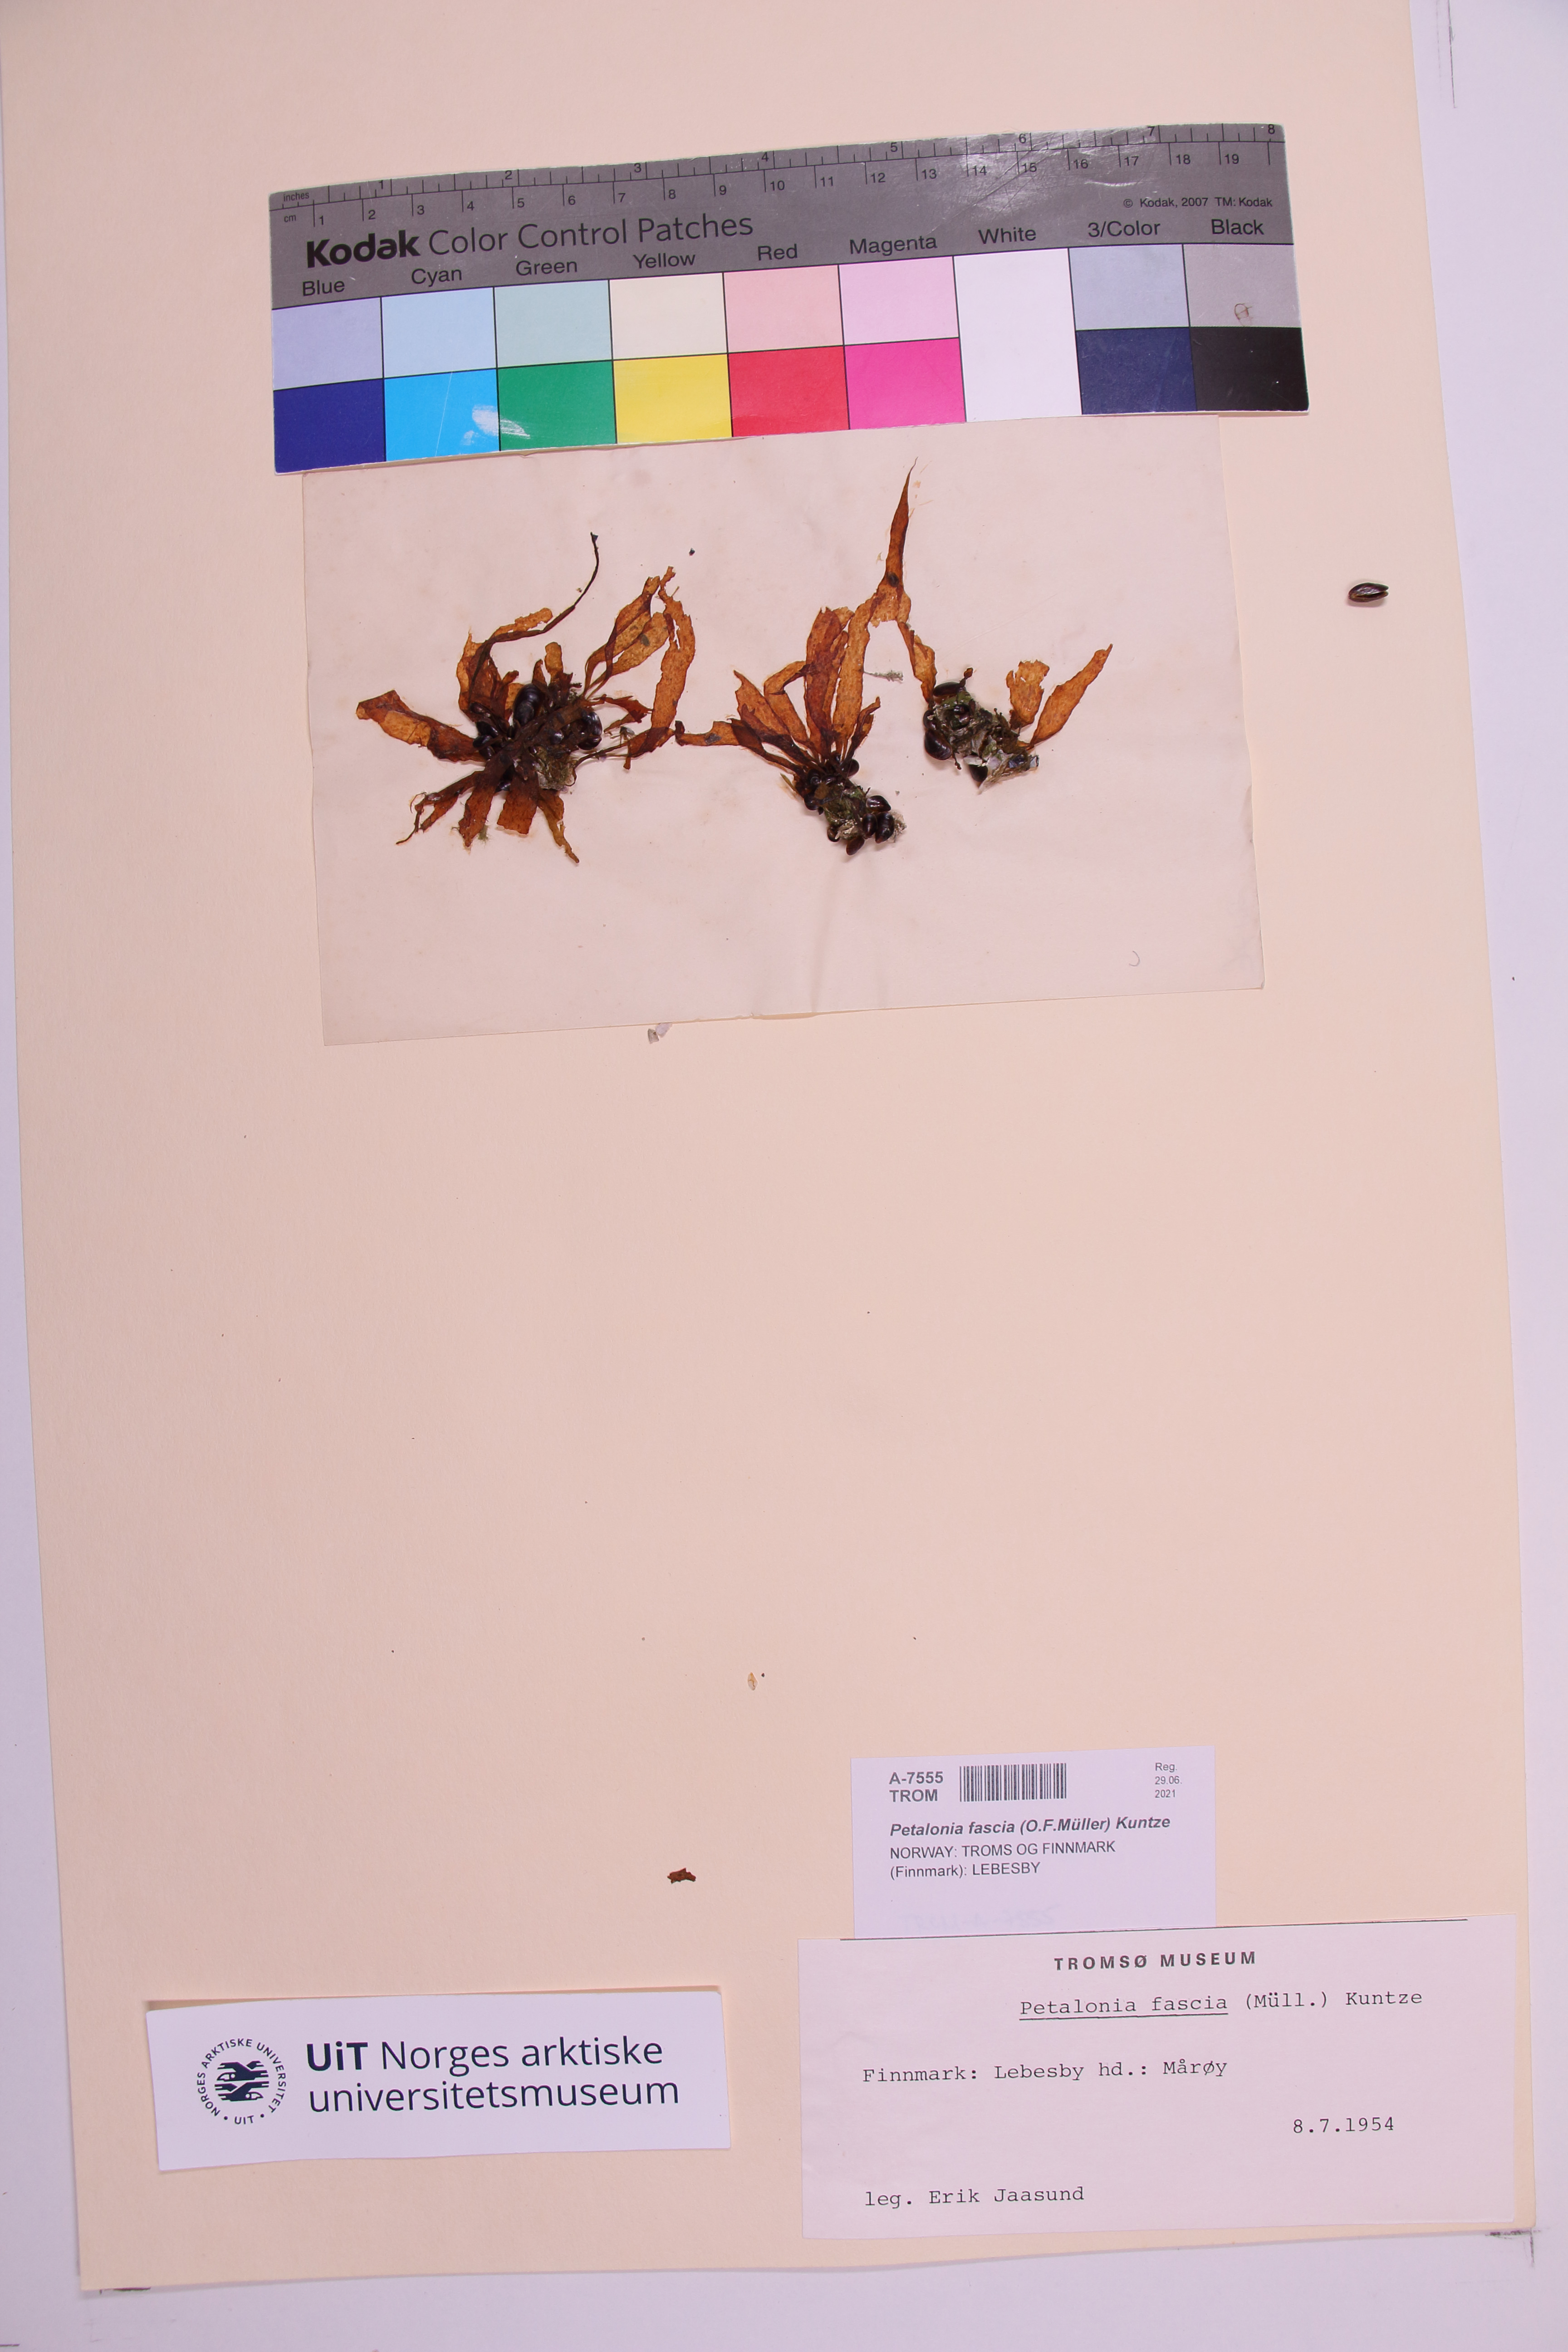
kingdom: Chromista
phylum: Ochrophyta
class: Phaeophyceae
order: Scytosiphonales
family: Scytosiphonaceae
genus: Petalonia
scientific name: Petalonia fascia
